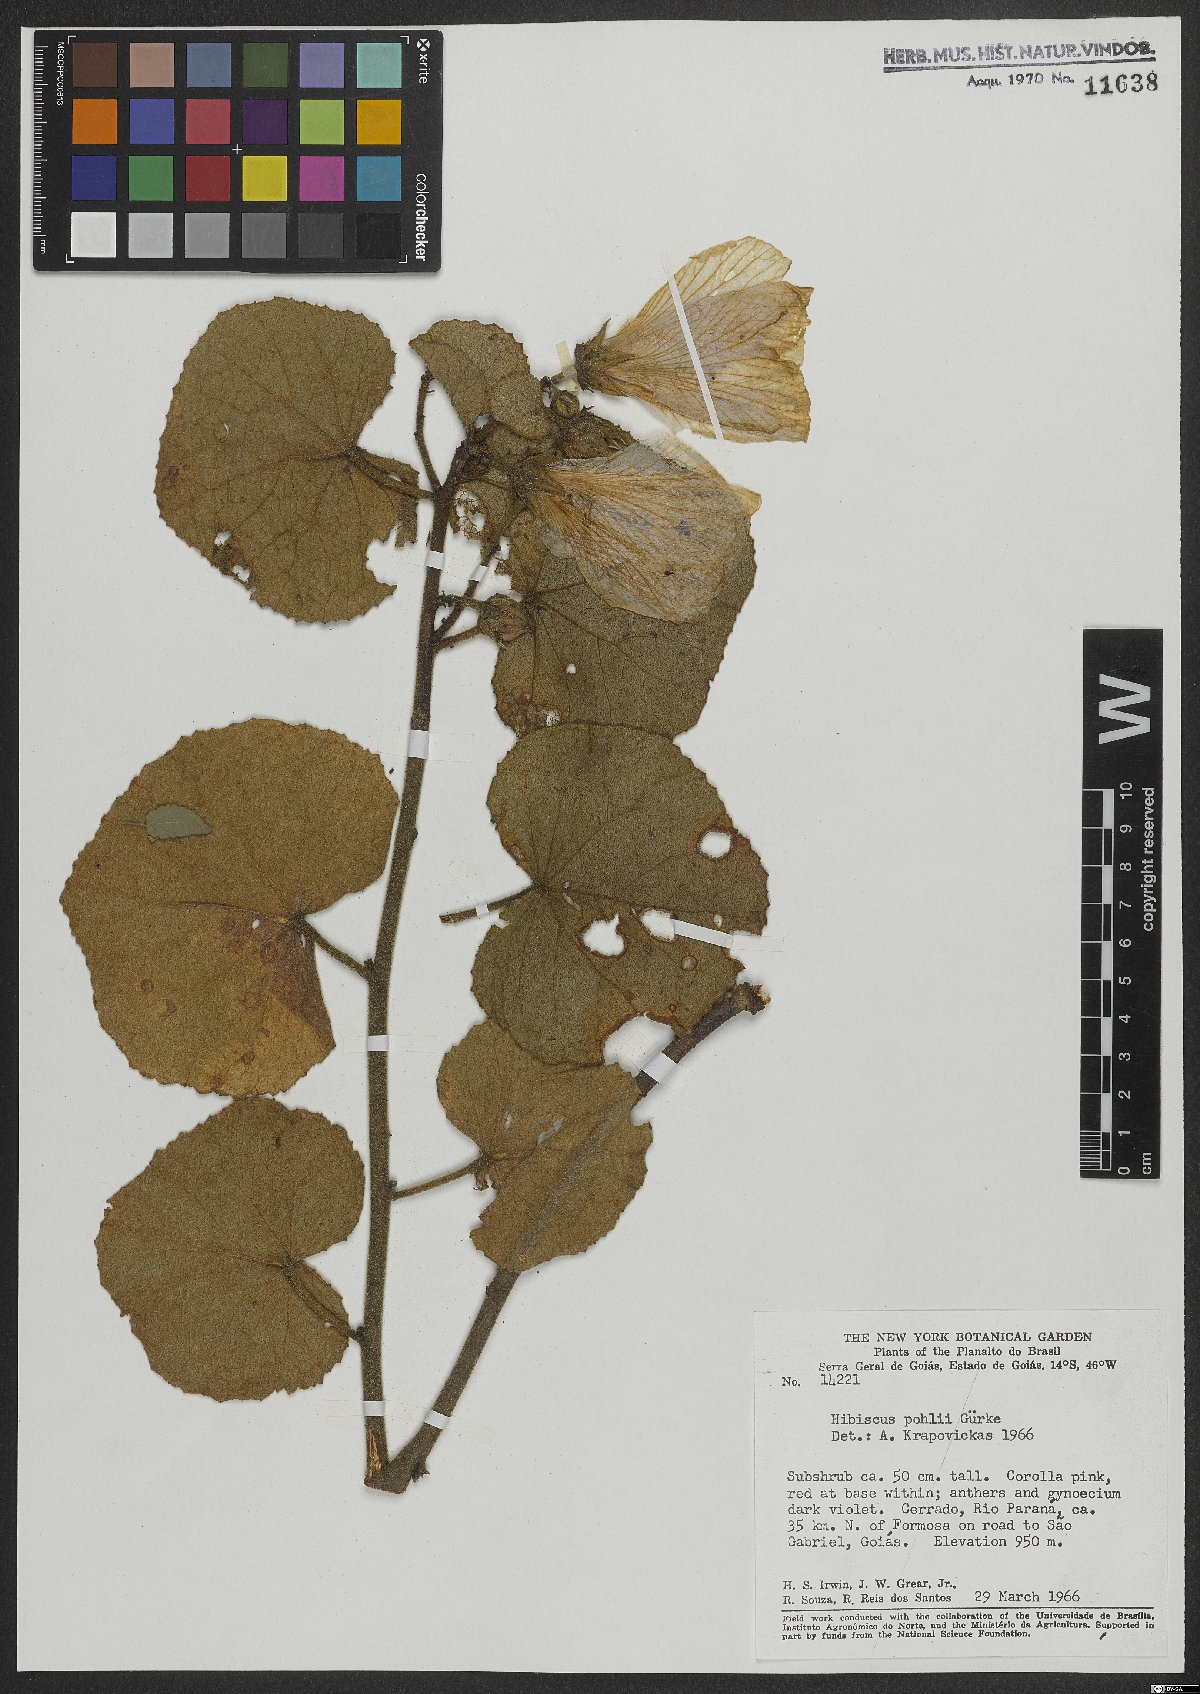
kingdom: Plantae
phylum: Tracheophyta
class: Magnoliopsida
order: Malvales
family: Malvaceae
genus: Hibiscus
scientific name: Hibiscus pohlii
